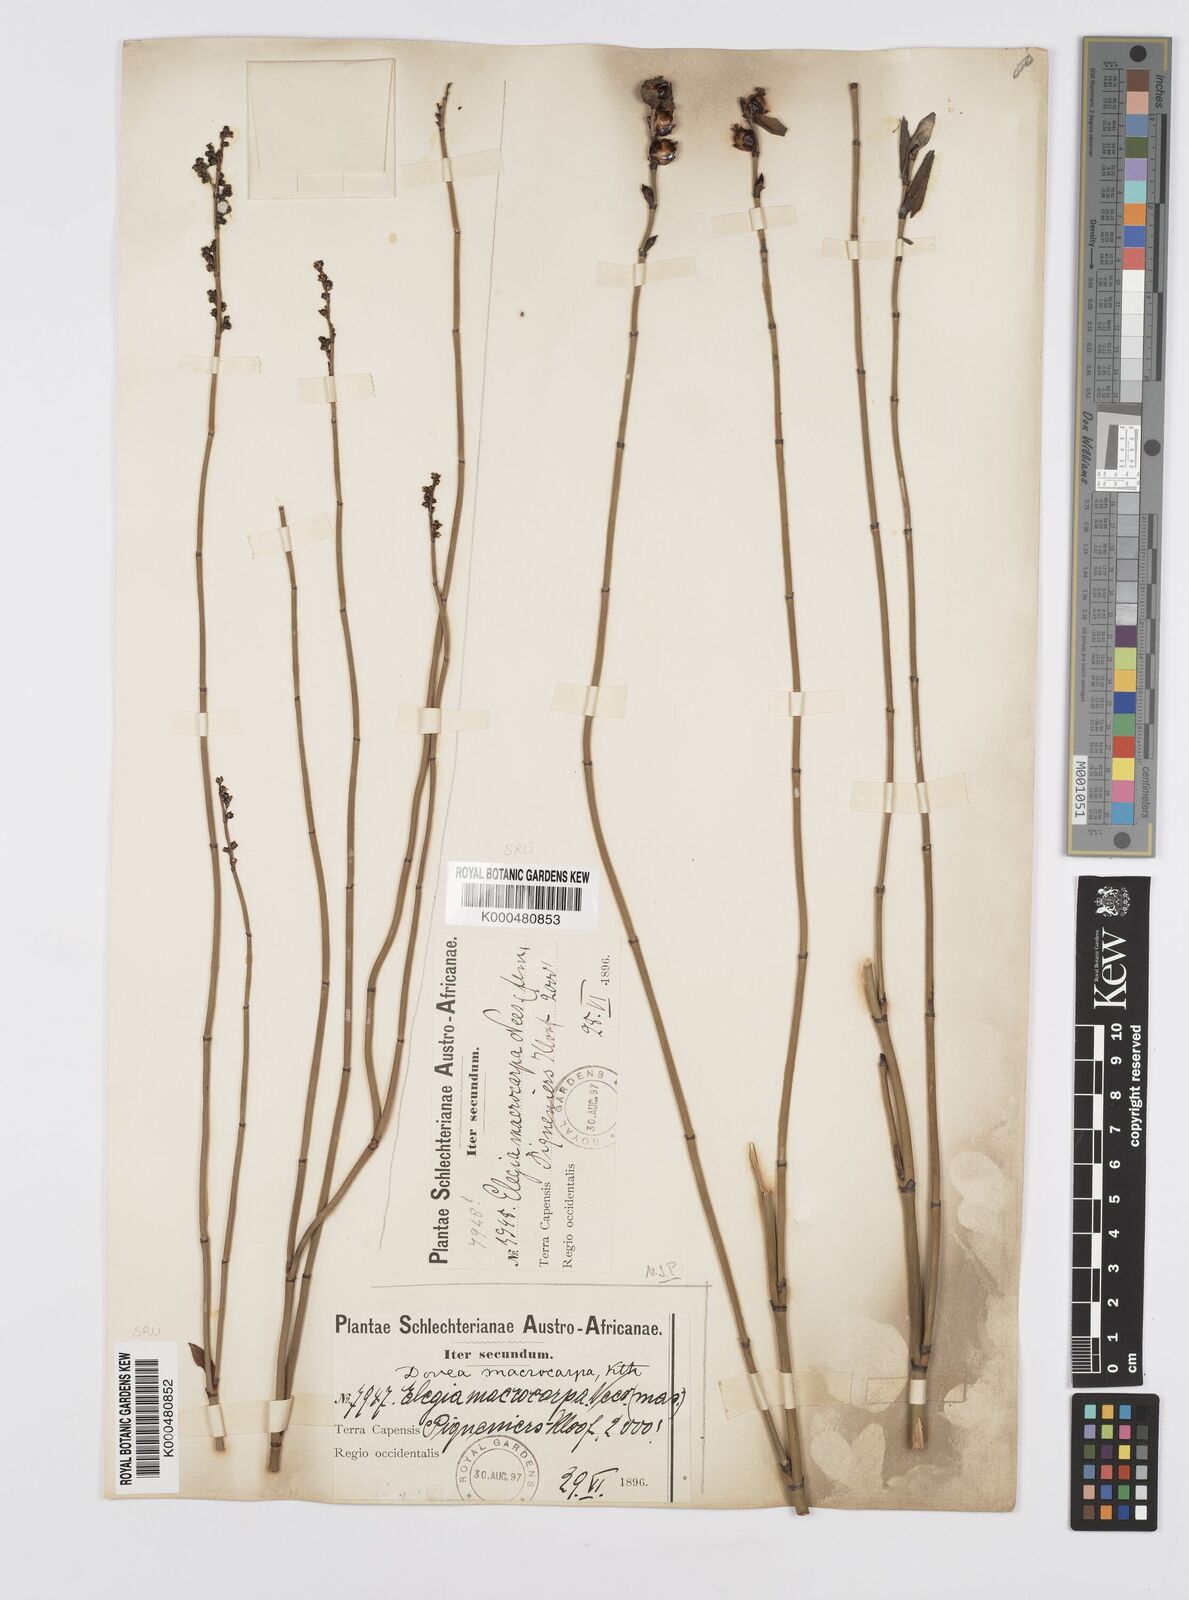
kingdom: Plantae
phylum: Tracheophyta
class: Liliopsida
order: Poales
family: Restionaceae
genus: Elegia
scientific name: Elegia macrocarpa
